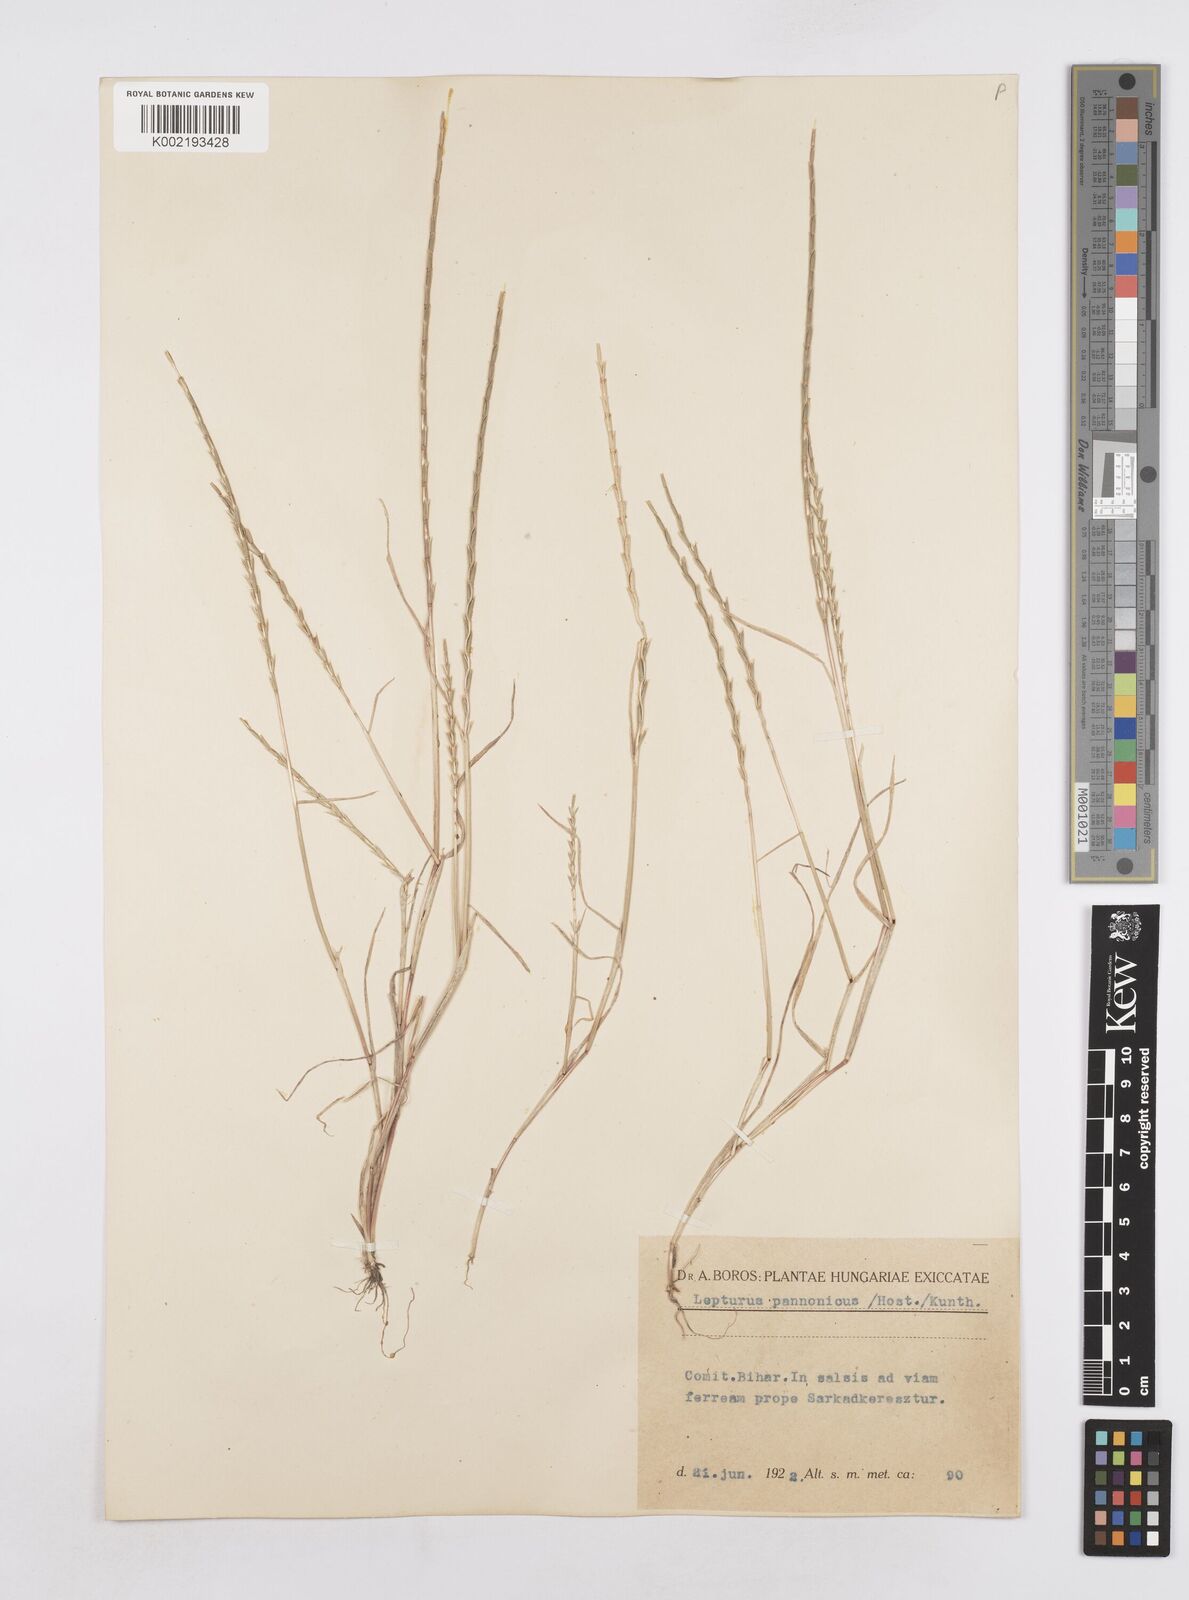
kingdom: Plantae
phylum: Tracheophyta
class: Liliopsida
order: Poales
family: Poaceae
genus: Pholiurus
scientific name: Pholiurus pannonicus
